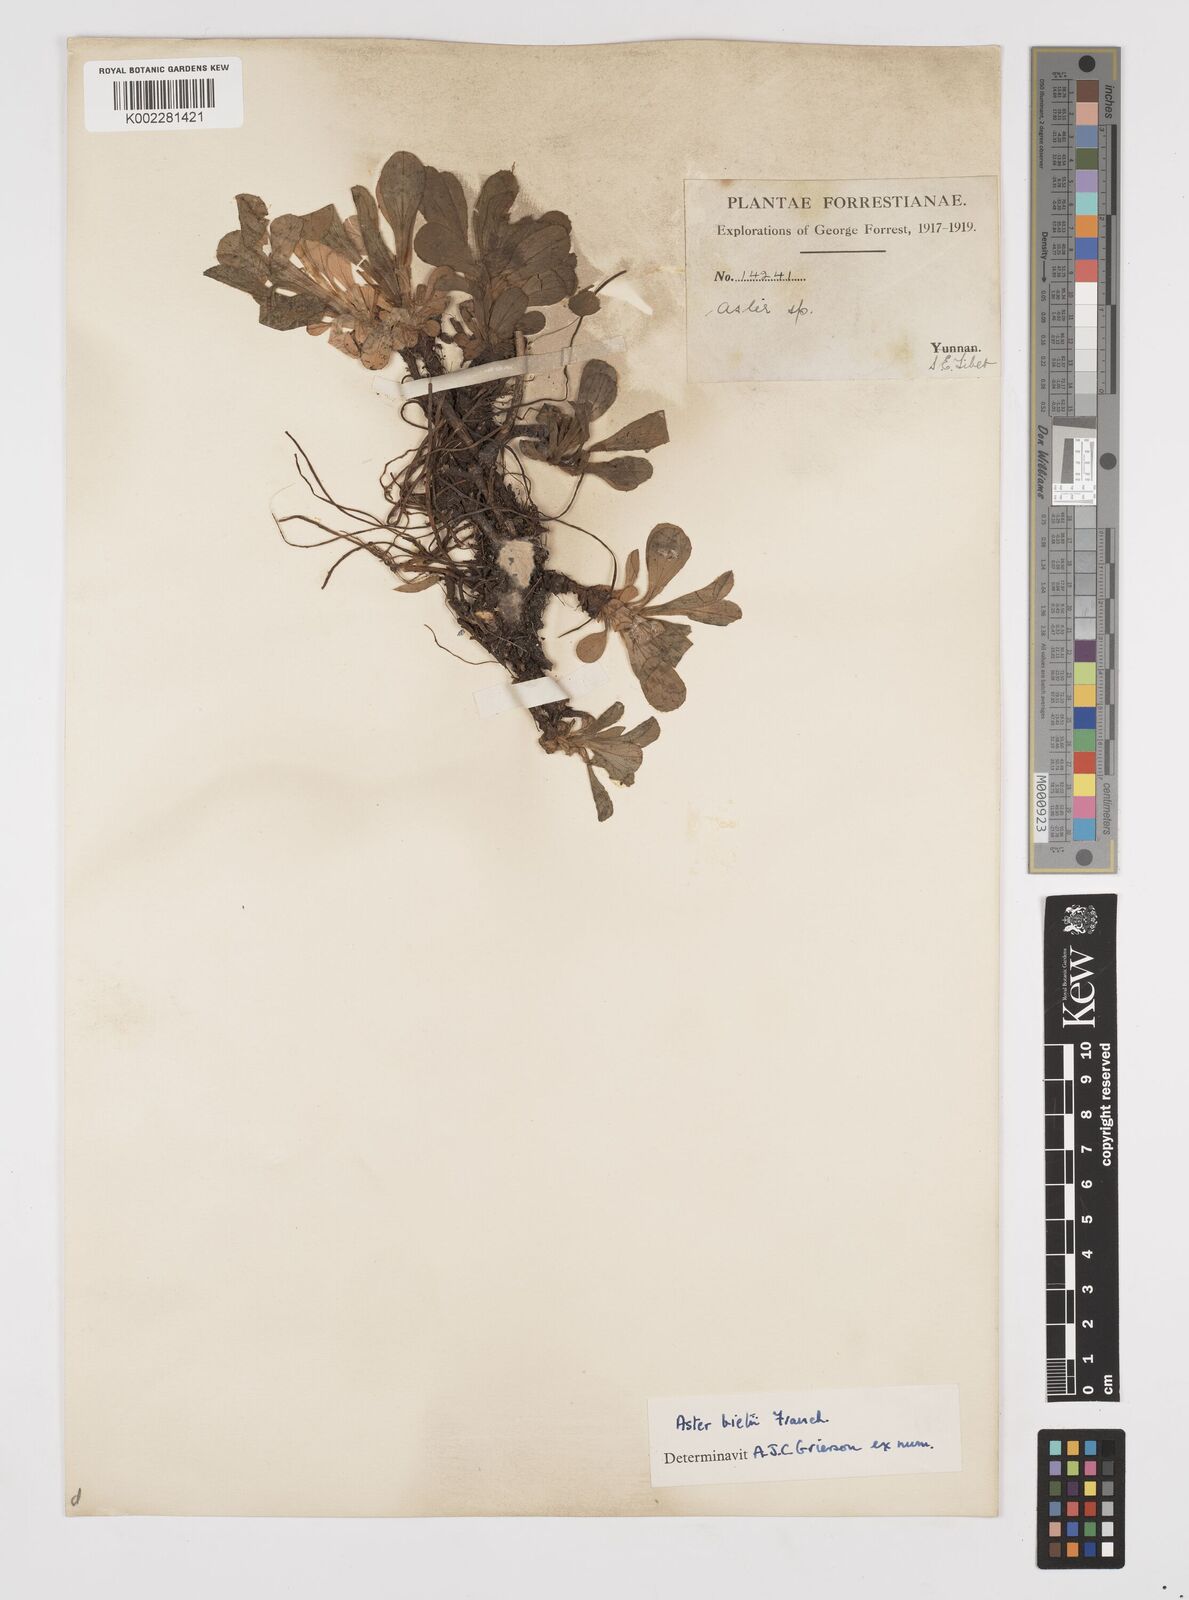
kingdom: Plantae
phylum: Tracheophyta
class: Magnoliopsida
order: Asterales
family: Asteraceae
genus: Tibetiodes
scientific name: Tibetiodes bietii
